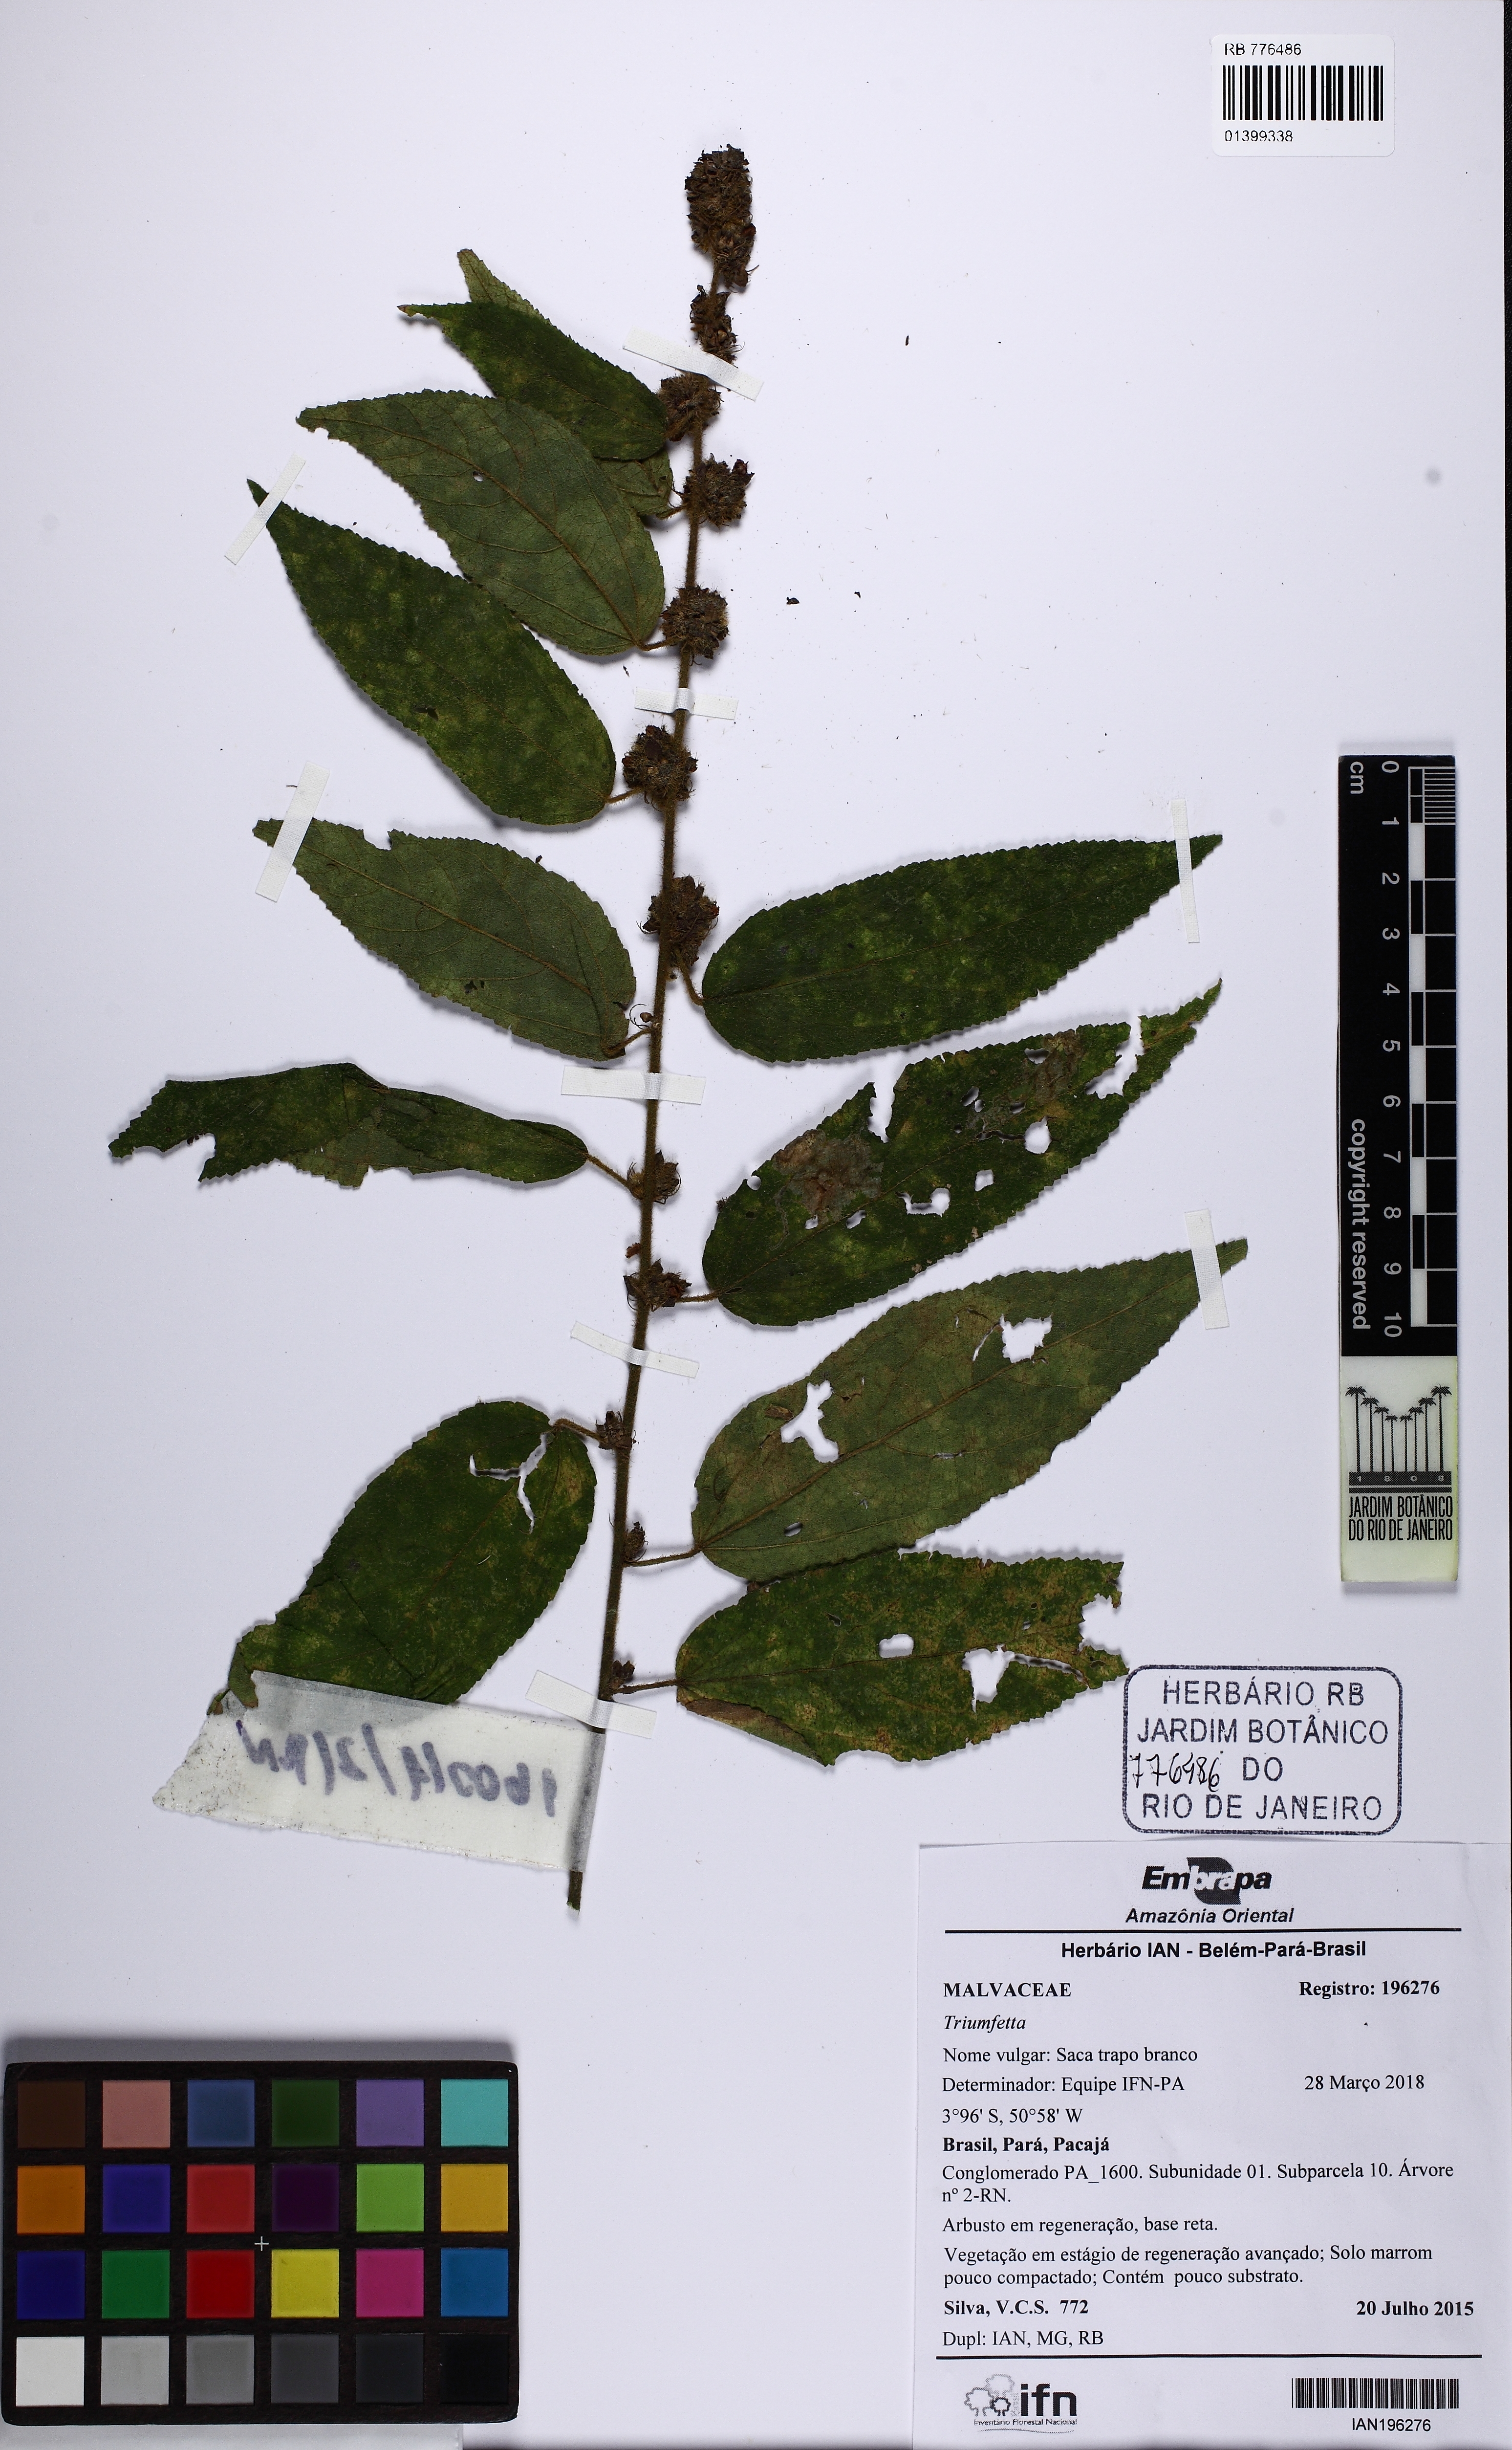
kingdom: Plantae
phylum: Tracheophyta
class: Magnoliopsida
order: Malvales
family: Malvaceae
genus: Triumfetta
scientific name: Triumfetta
